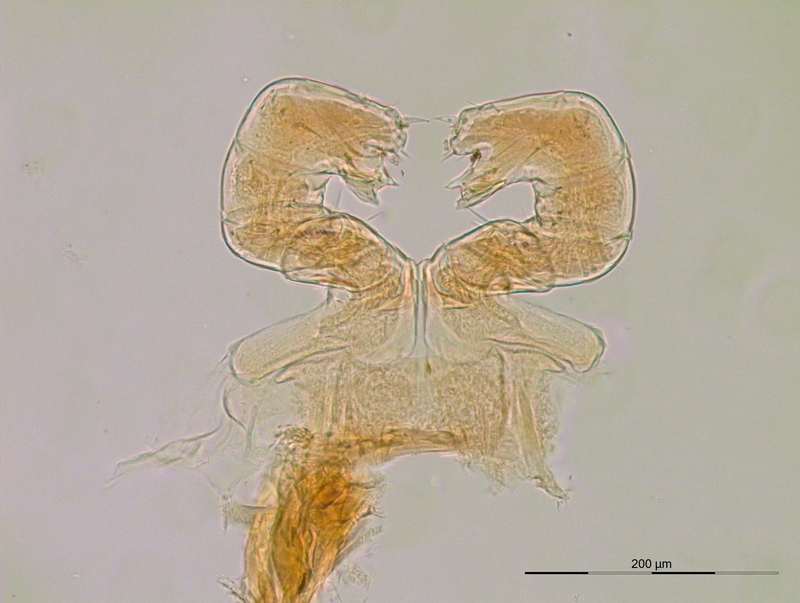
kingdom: Animalia
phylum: Arthropoda
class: Diplopoda
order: Julida
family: Blaniulidae
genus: Nopoiulus
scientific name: Nopoiulus kochii
